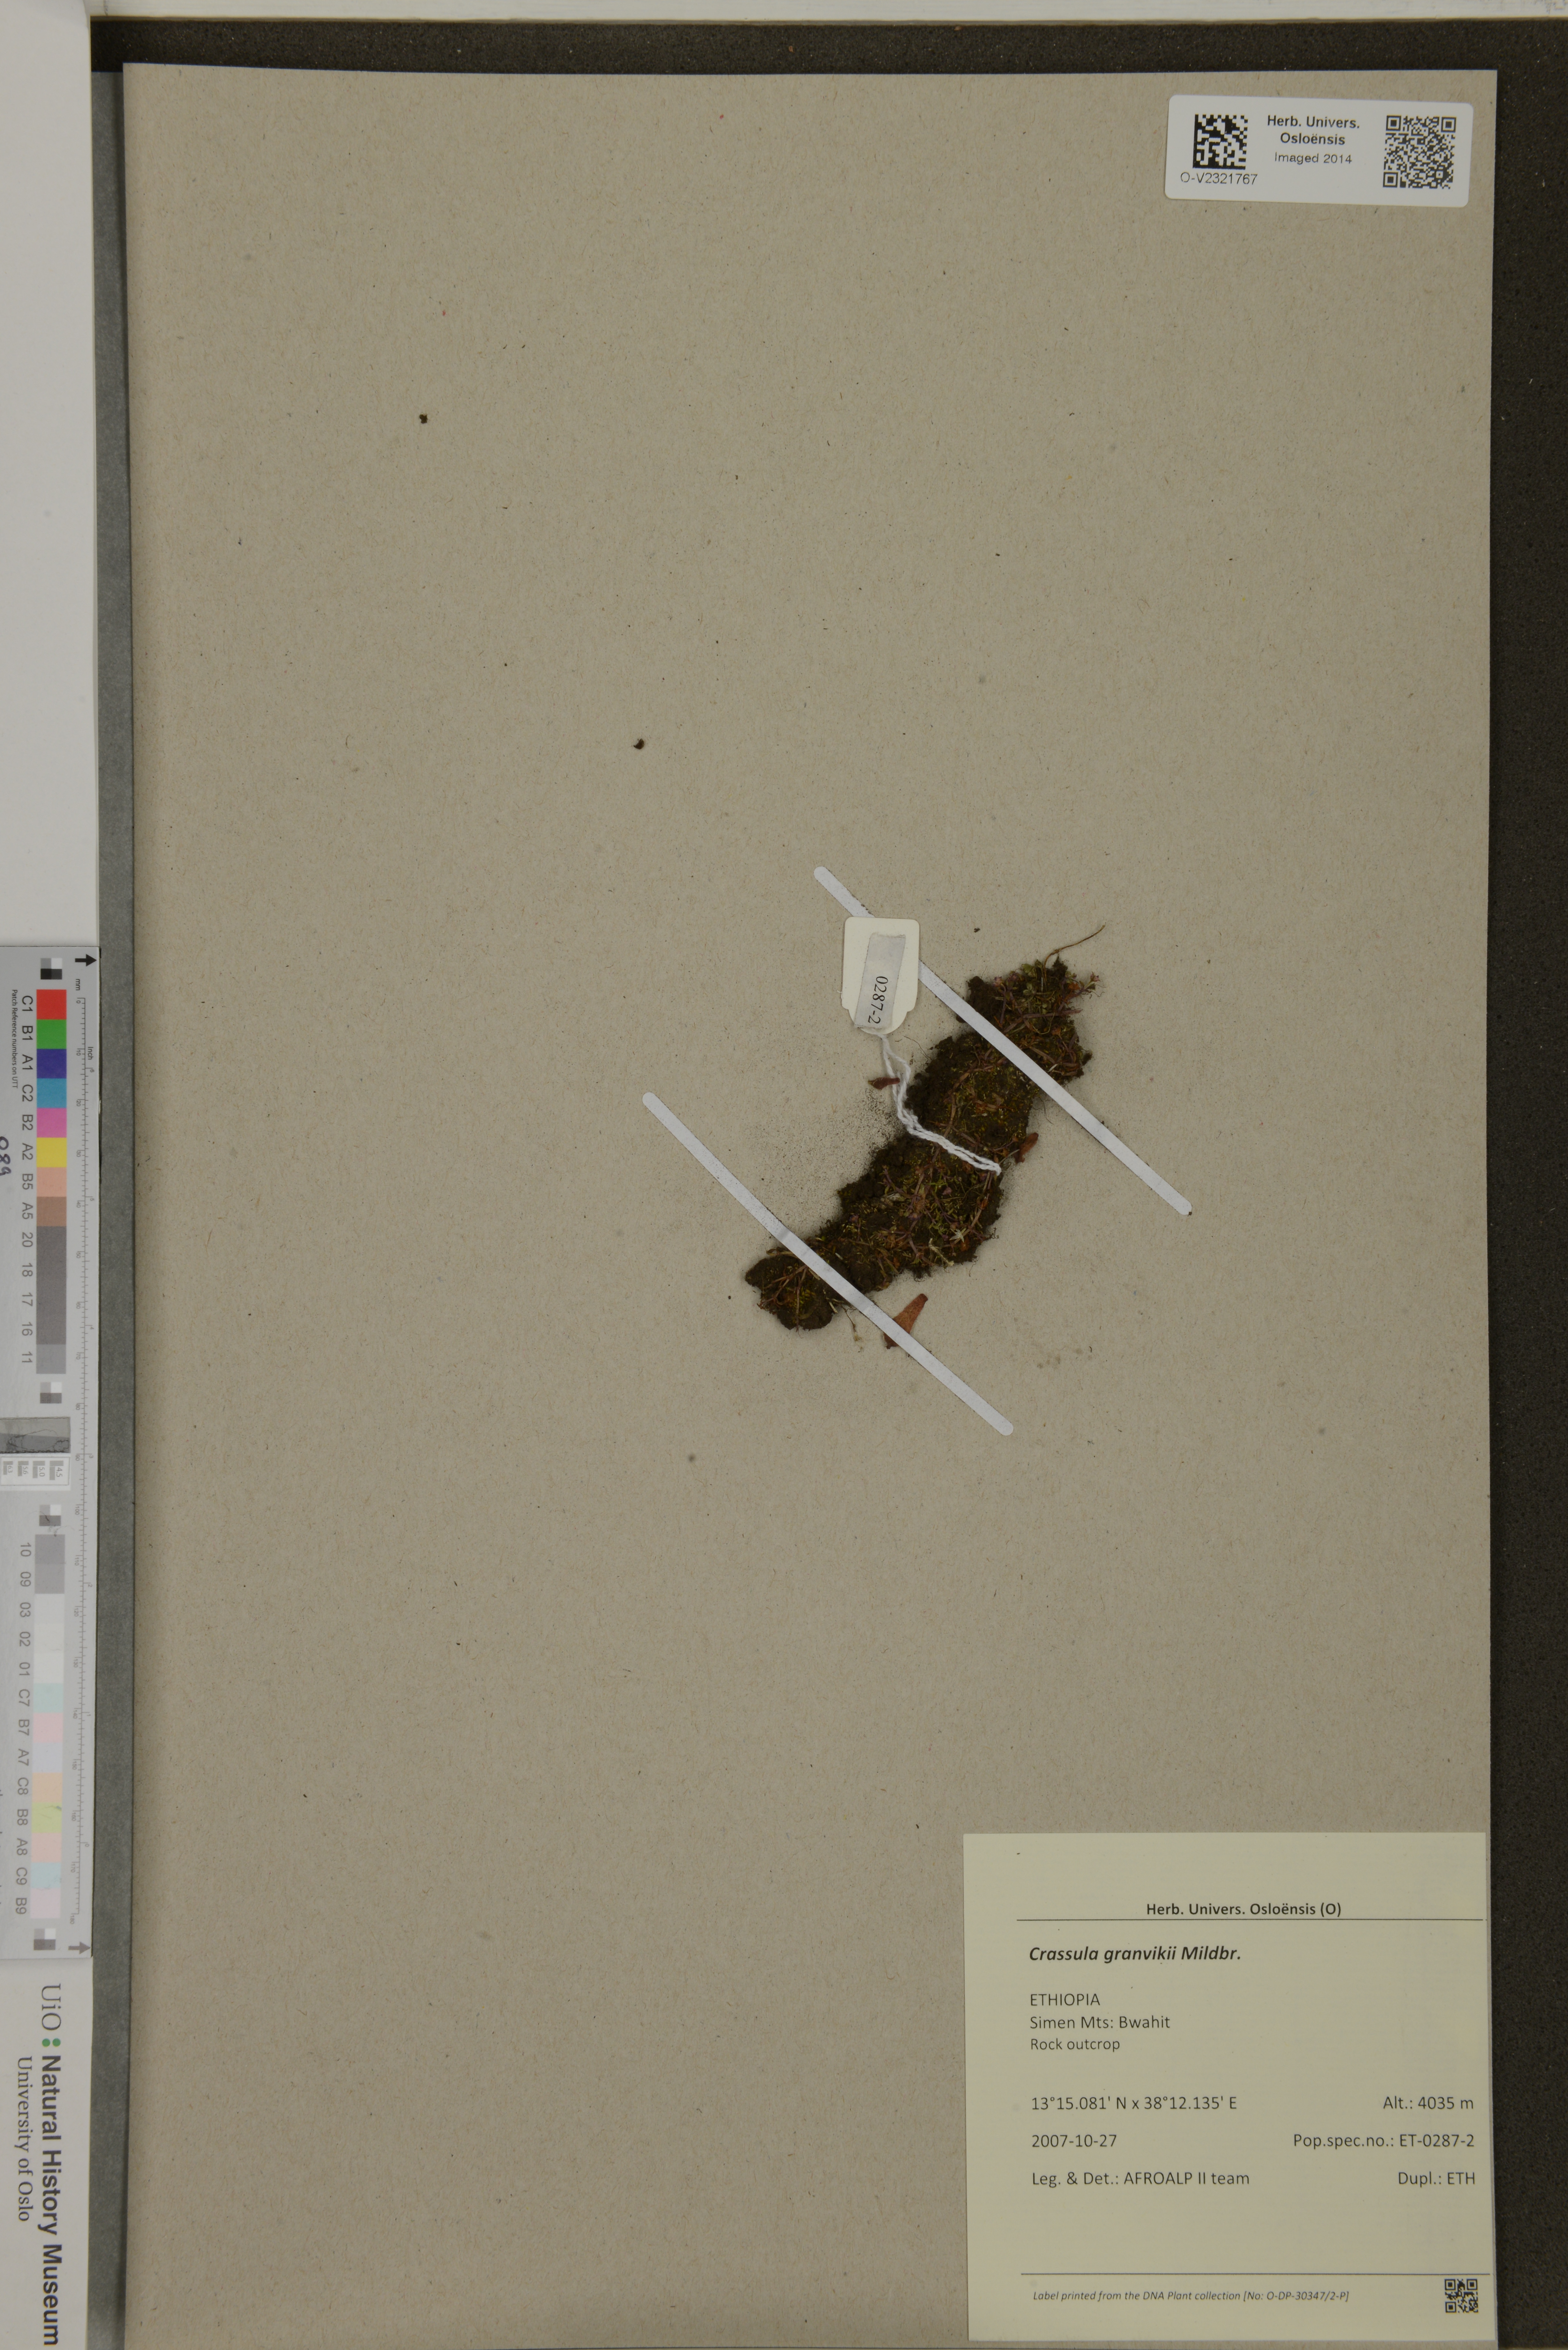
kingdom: Plantae
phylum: Tracheophyta
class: Magnoliopsida
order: Saxifragales
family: Crassulaceae
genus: Crassula
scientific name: Crassula granvikii
